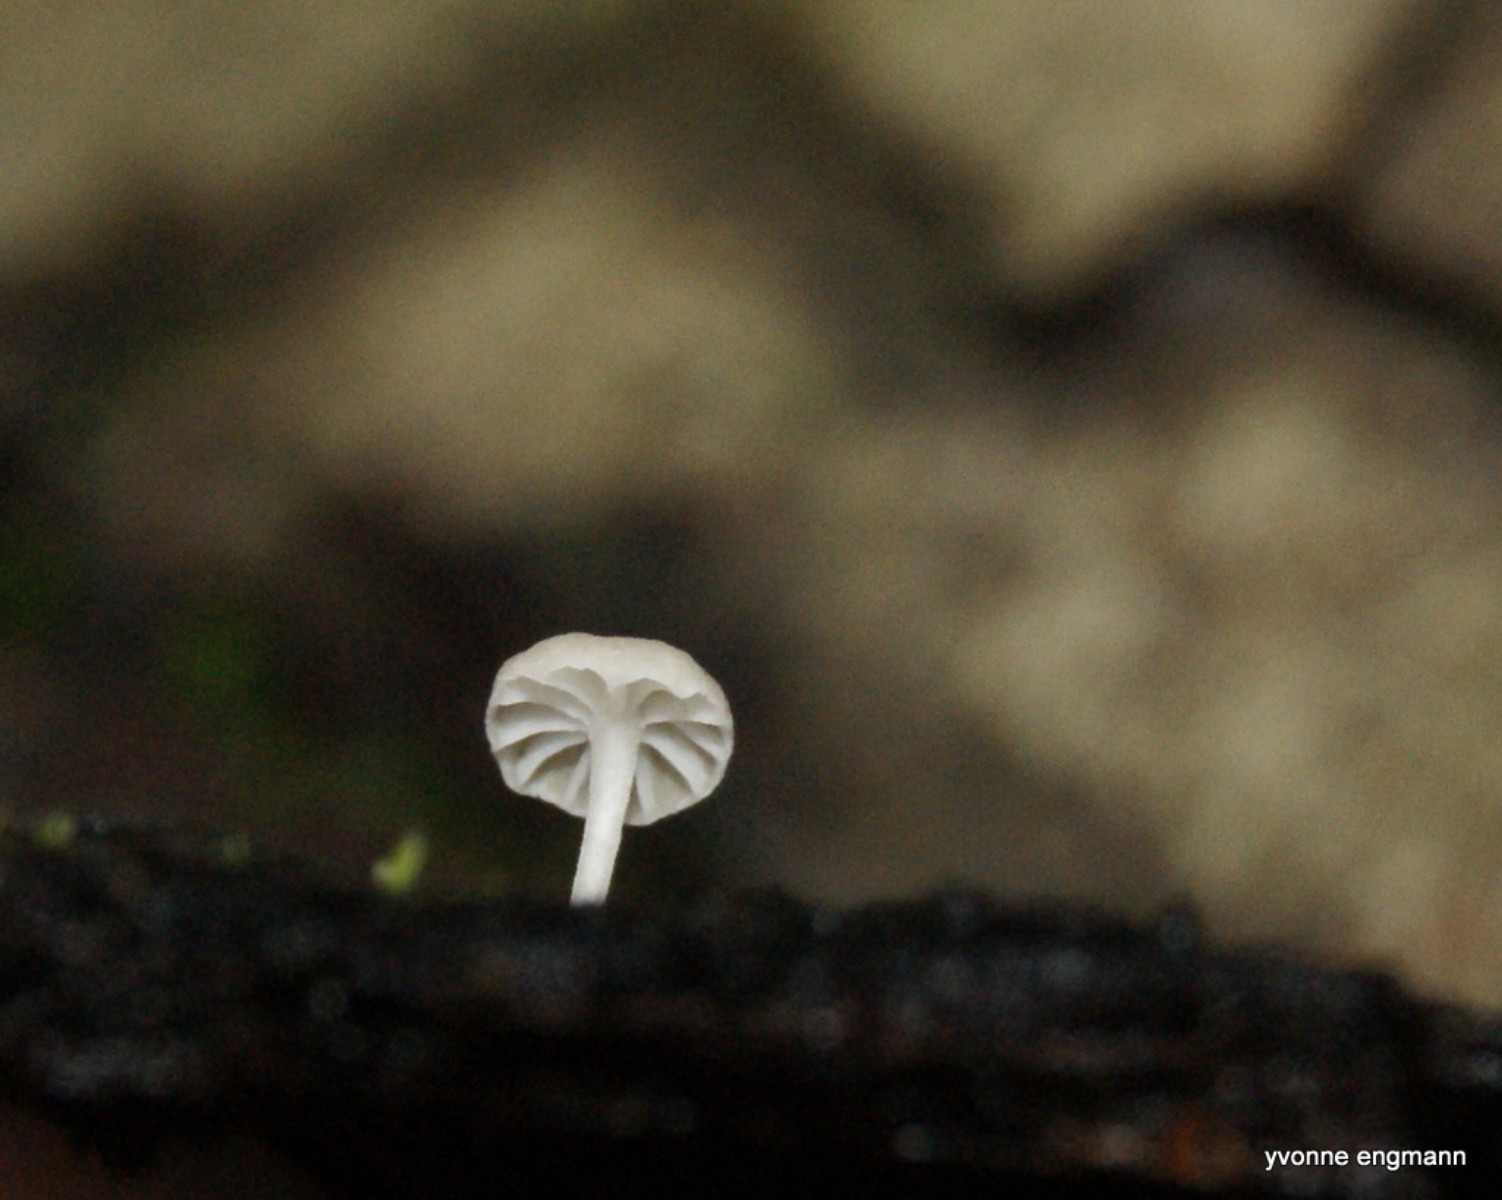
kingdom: Fungi
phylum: Basidiomycota
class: Agaricomycetes
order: Agaricales
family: Porotheleaceae
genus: Phloeomana
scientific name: Phloeomana speirea
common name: kvist-huesvamp
